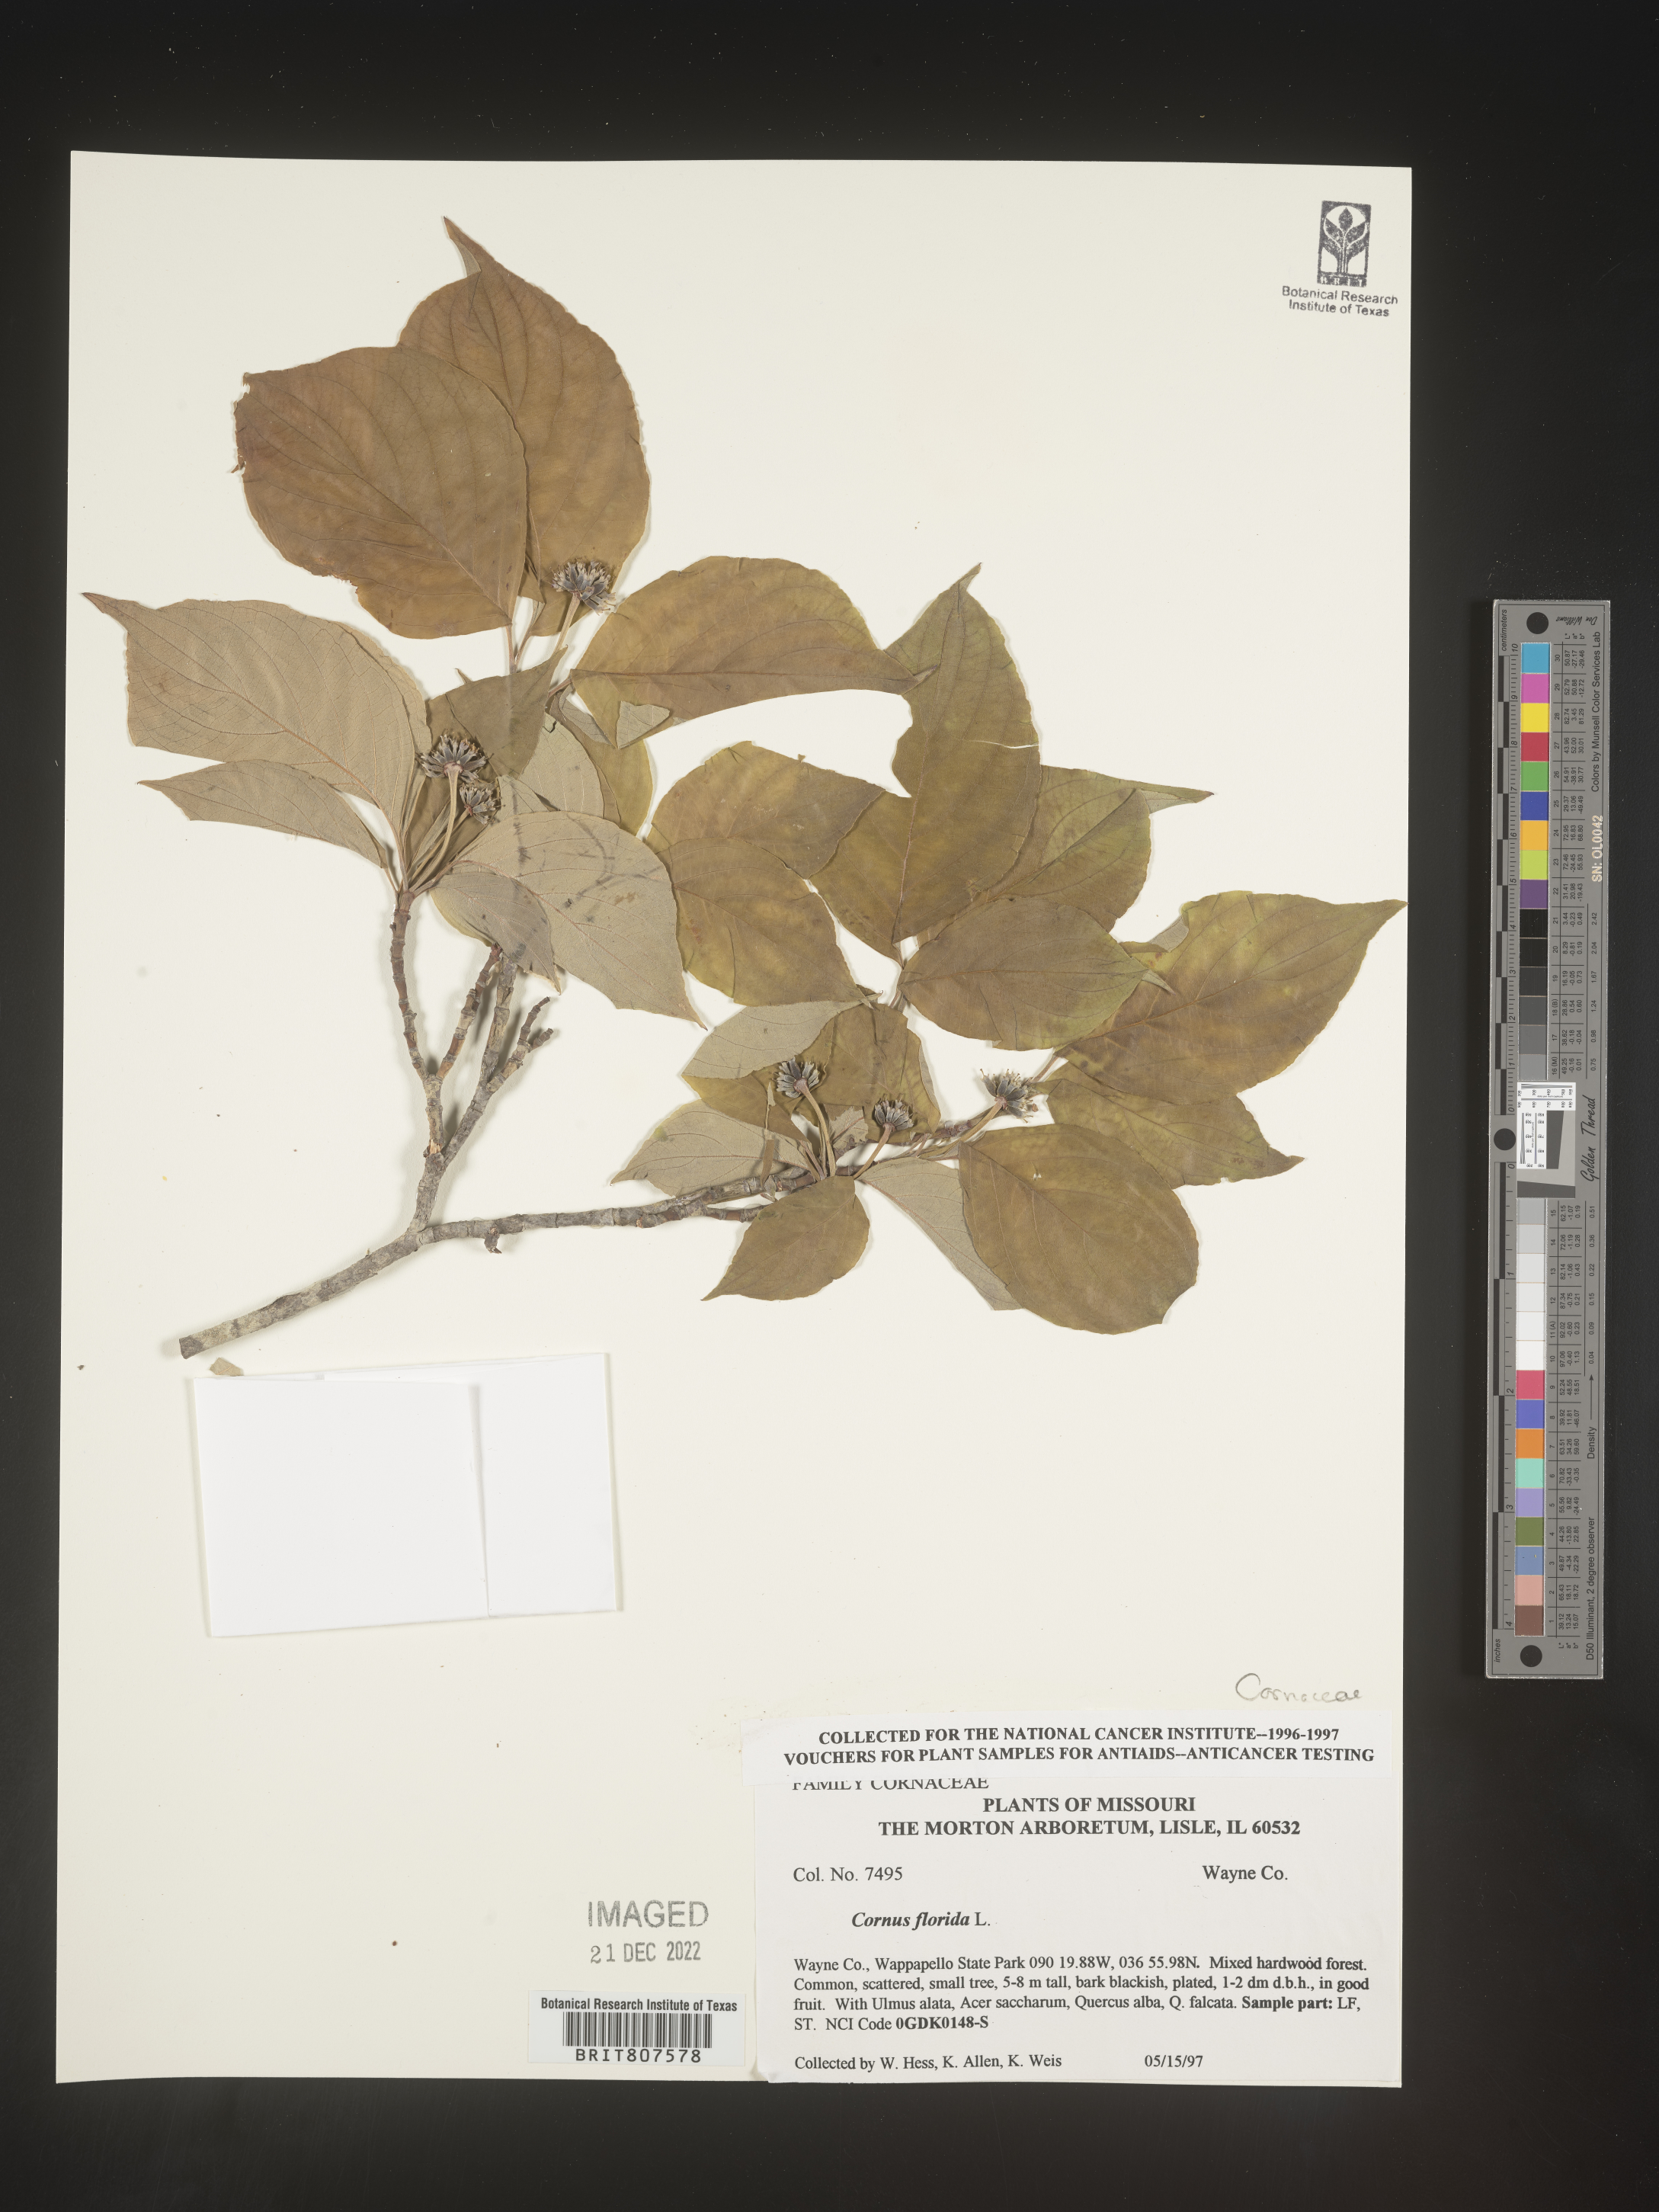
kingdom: Plantae
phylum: Tracheophyta
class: Magnoliopsida
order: Cornales
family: Cornaceae
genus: Cornus
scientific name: Cornus florida
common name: Flowering dogwood
